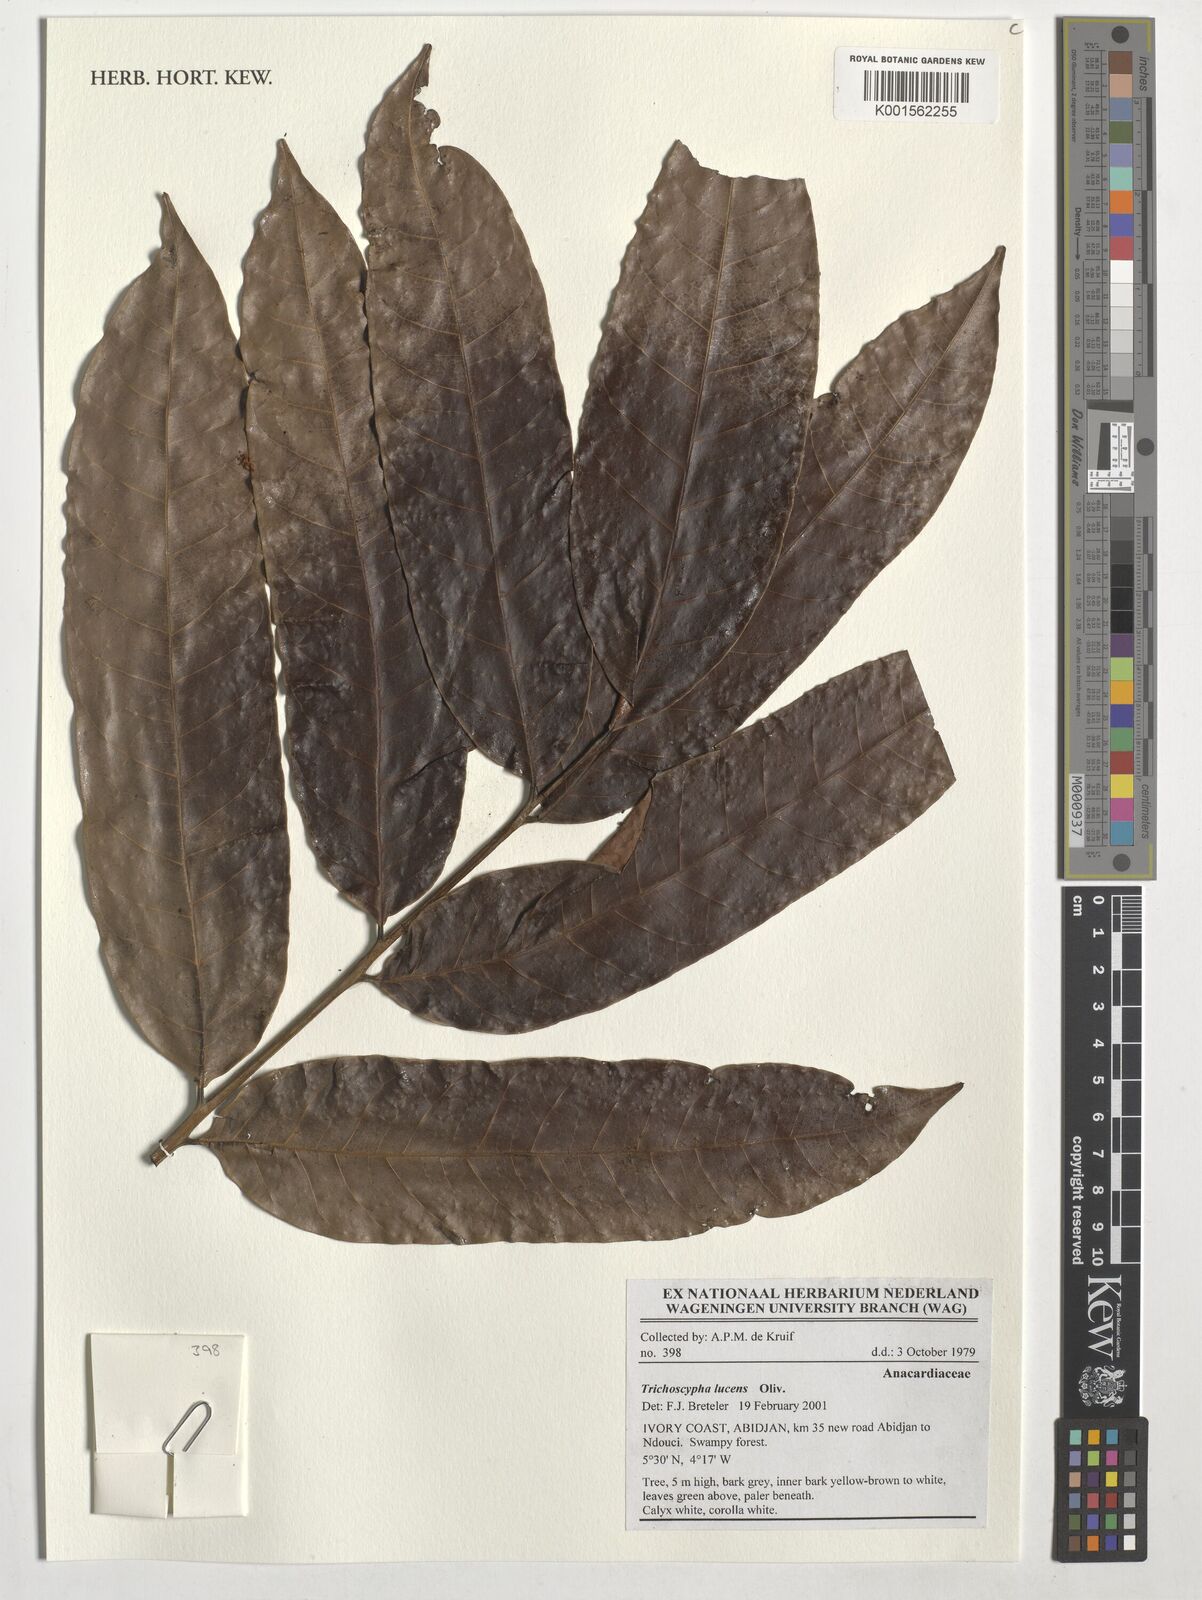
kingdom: Plantae
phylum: Tracheophyta
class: Magnoliopsida
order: Sapindales
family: Anacardiaceae
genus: Trichoscypha
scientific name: Trichoscypha lucens
